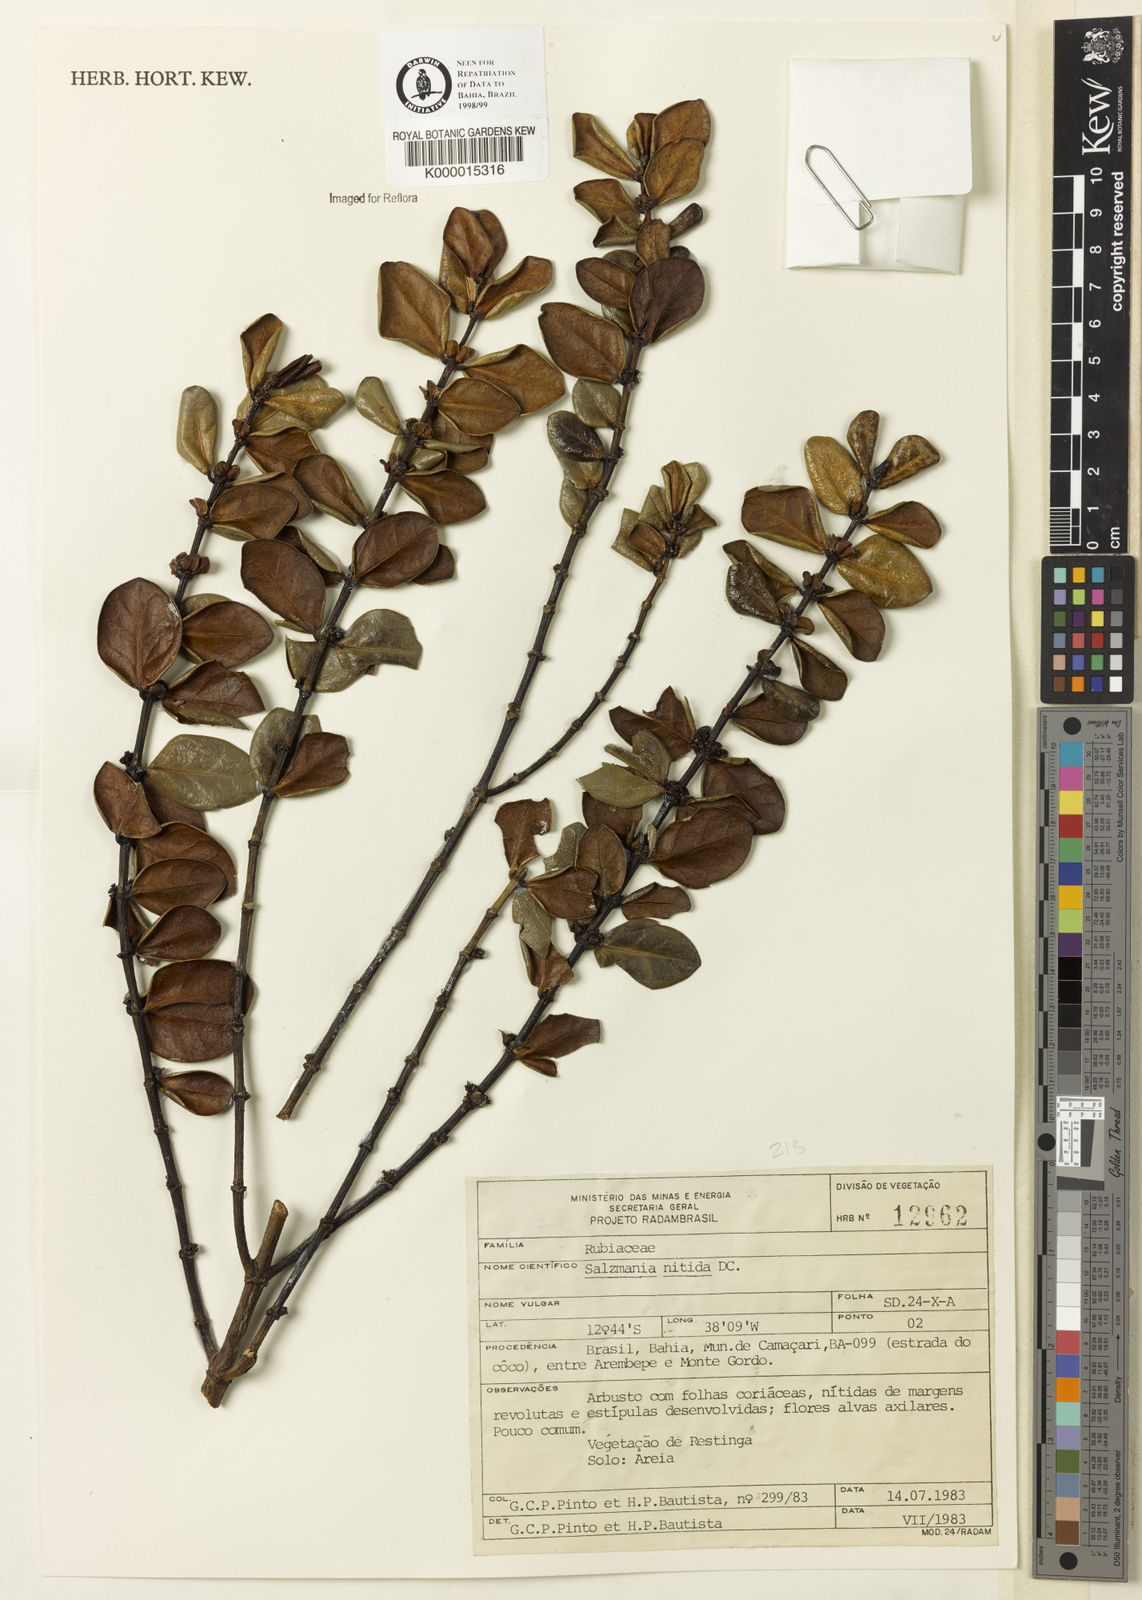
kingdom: Plantae
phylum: Tracheophyta
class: Magnoliopsida
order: Gentianales
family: Rubiaceae
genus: Salzmannia
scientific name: Salzmannia nitida
